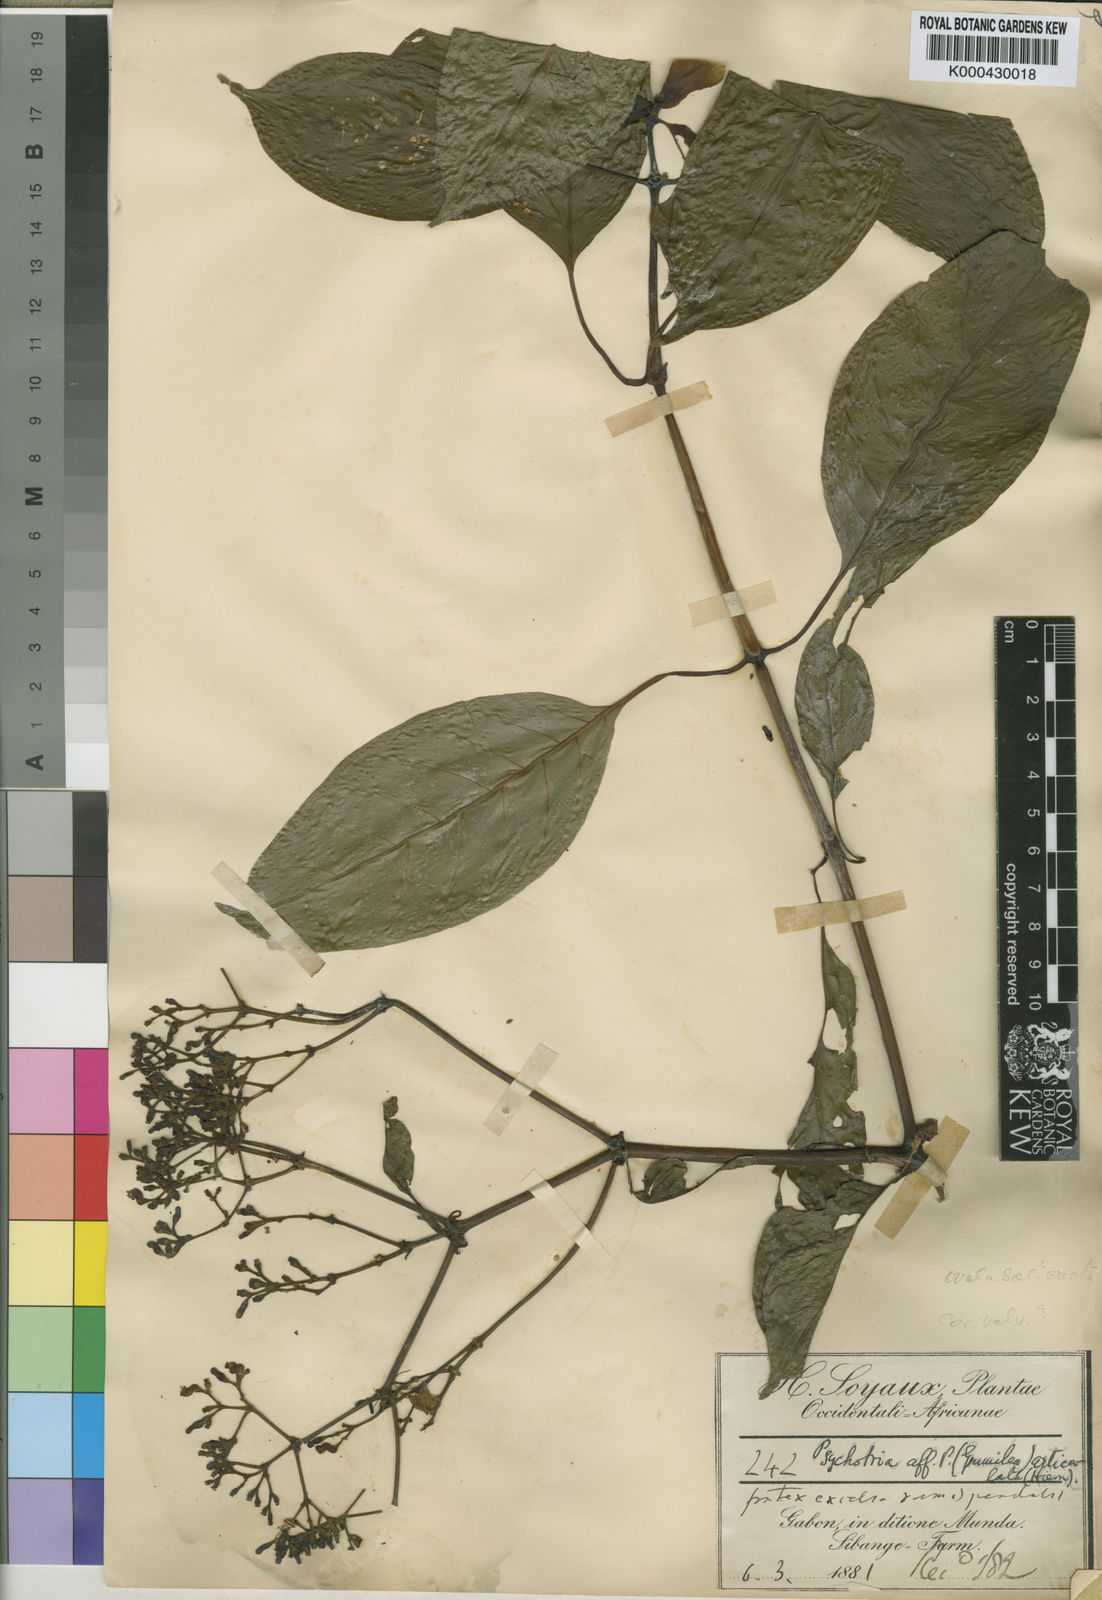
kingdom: Plantae
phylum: Tracheophyta
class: Magnoliopsida
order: Gentianales
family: Rubiaceae
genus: Chassalia
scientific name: Chassalia macrodiscus
